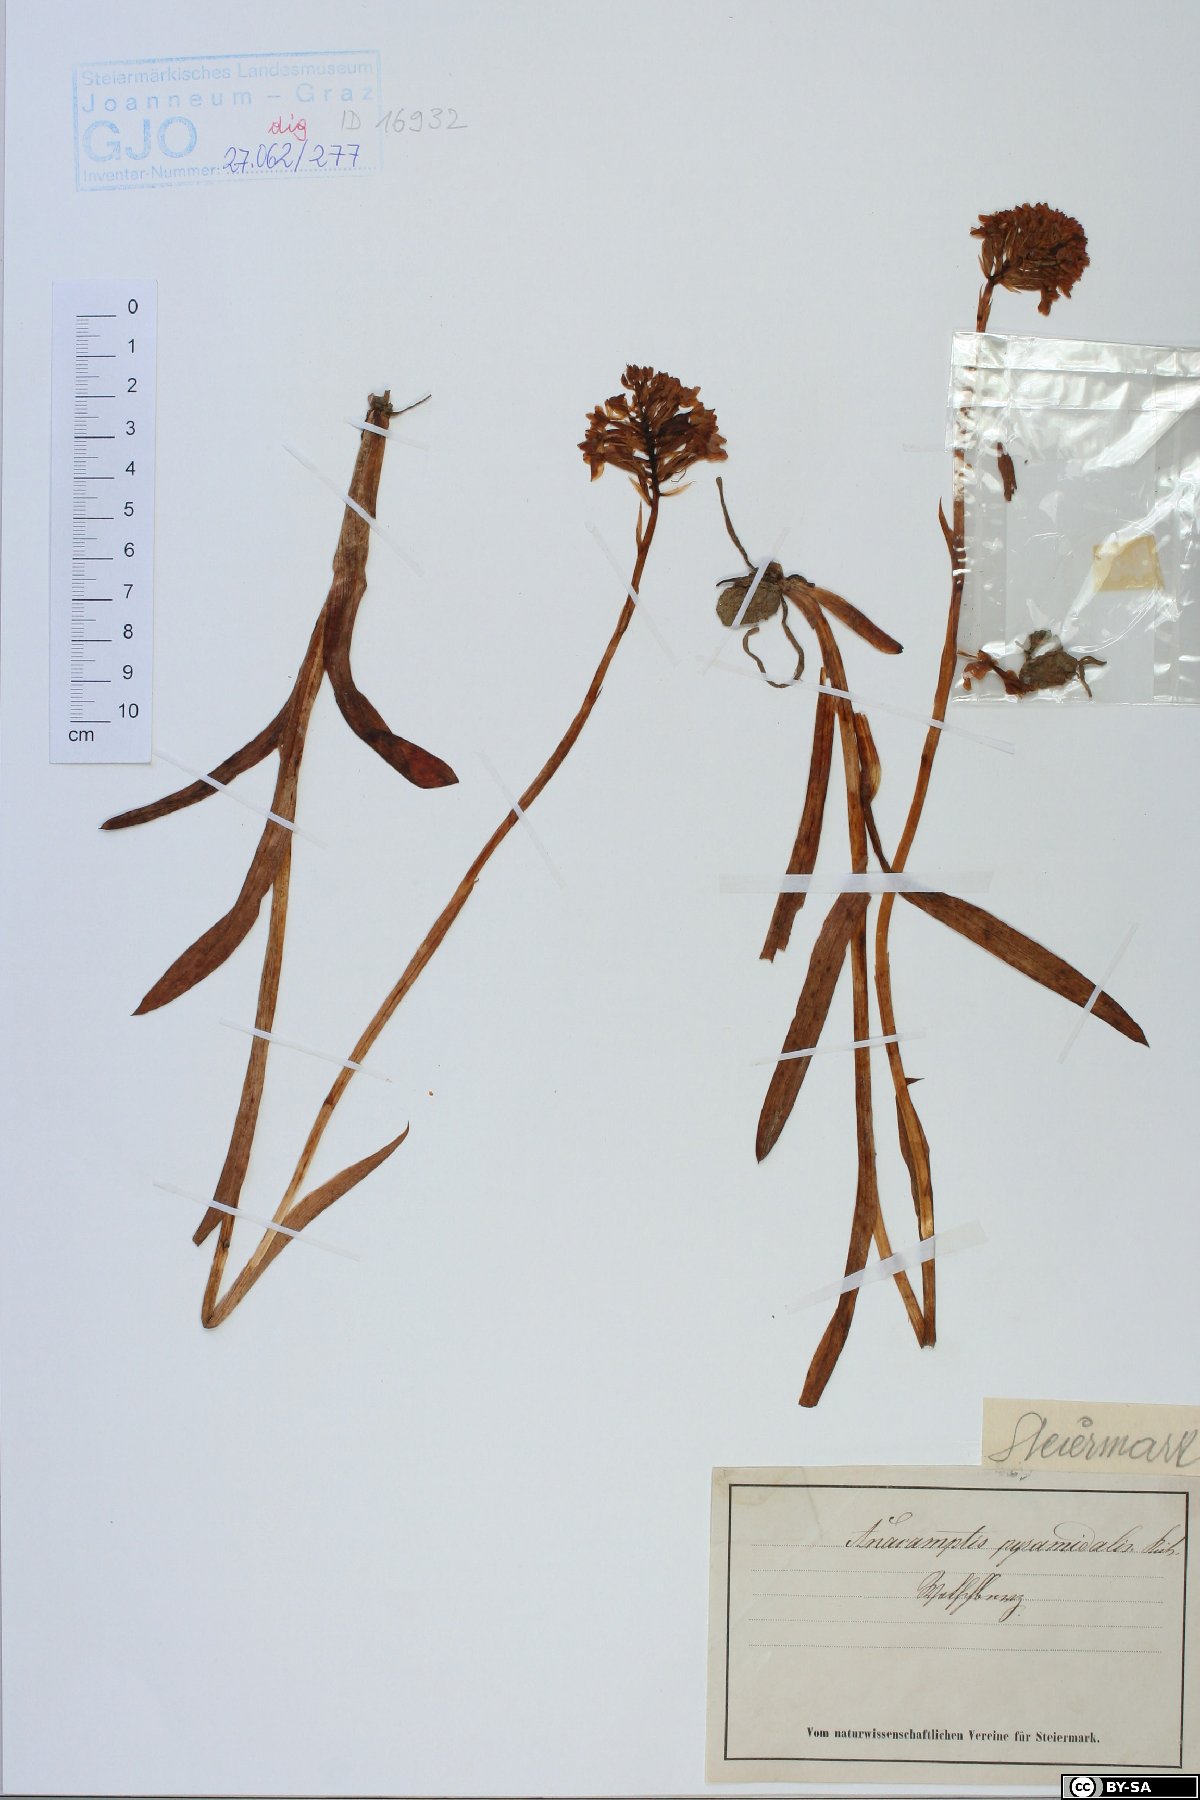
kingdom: Plantae
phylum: Tracheophyta
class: Liliopsida
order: Asparagales
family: Orchidaceae
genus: Anacamptis
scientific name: Anacamptis pyramidalis
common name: Pyramidal orchid
